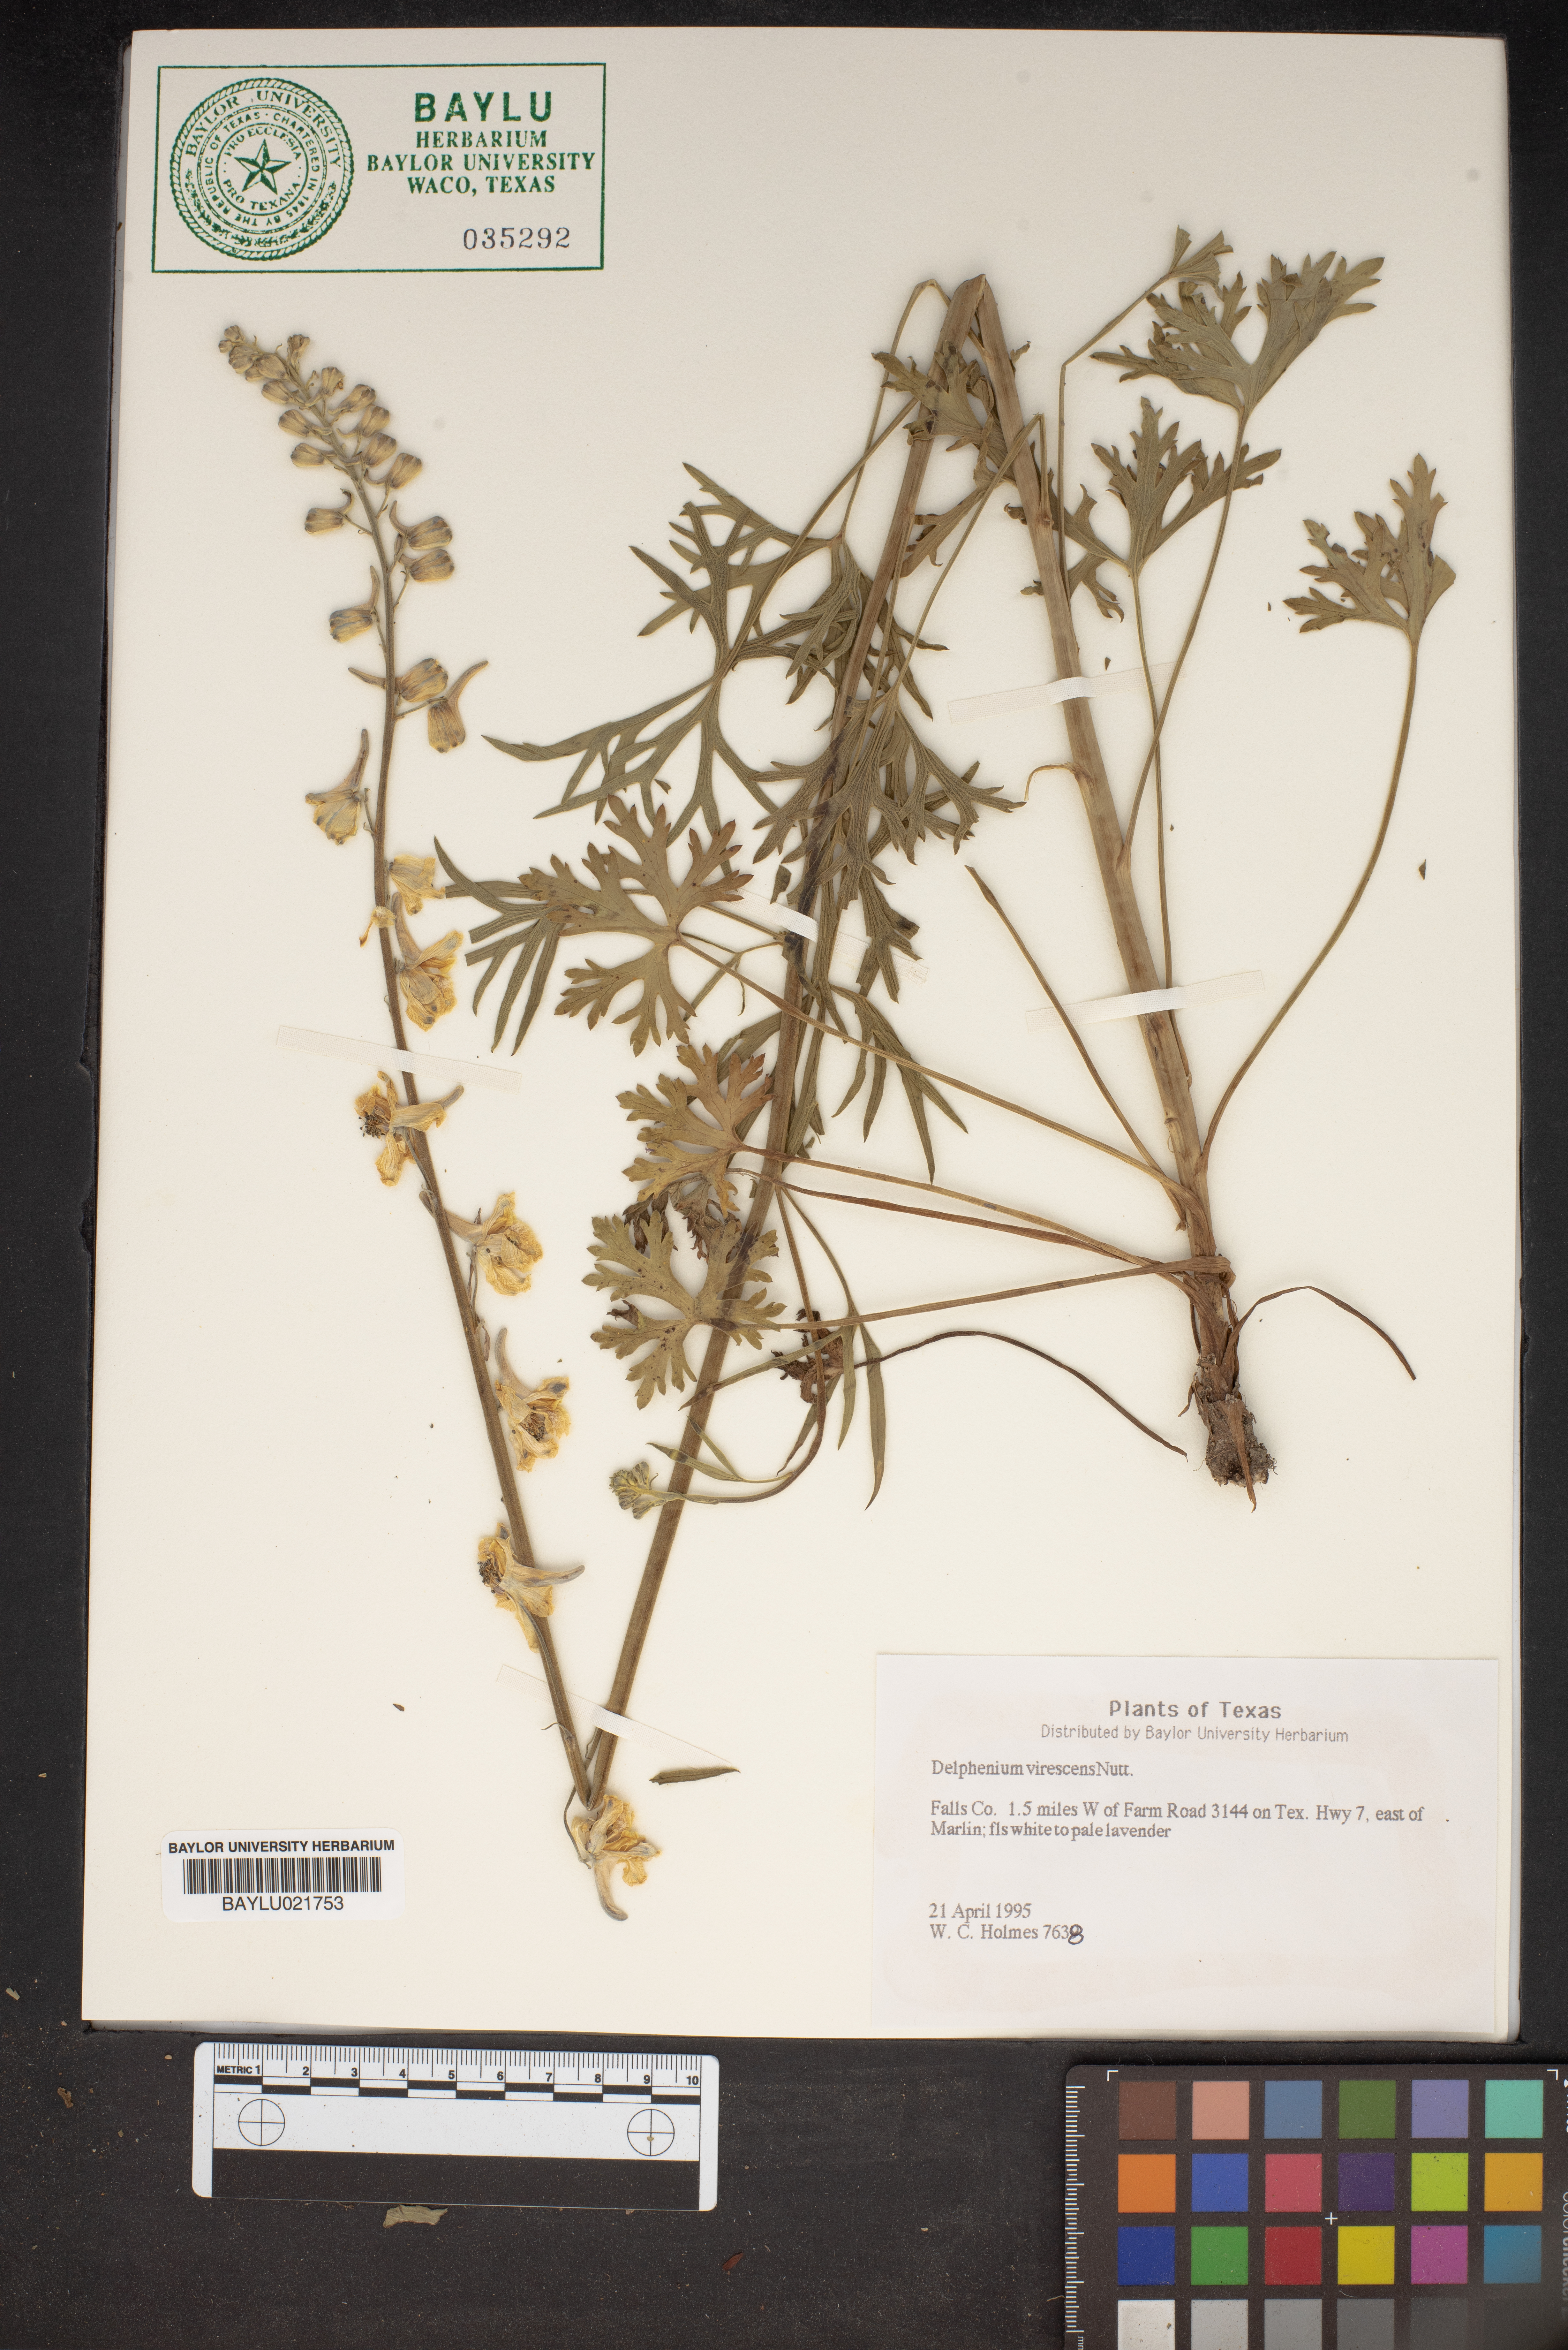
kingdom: Plantae
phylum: Tracheophyta
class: Magnoliopsida
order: Ranunculales
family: Ranunculaceae
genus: Delphinium
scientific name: Delphinium carolinianum
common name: Carolina larkspur
